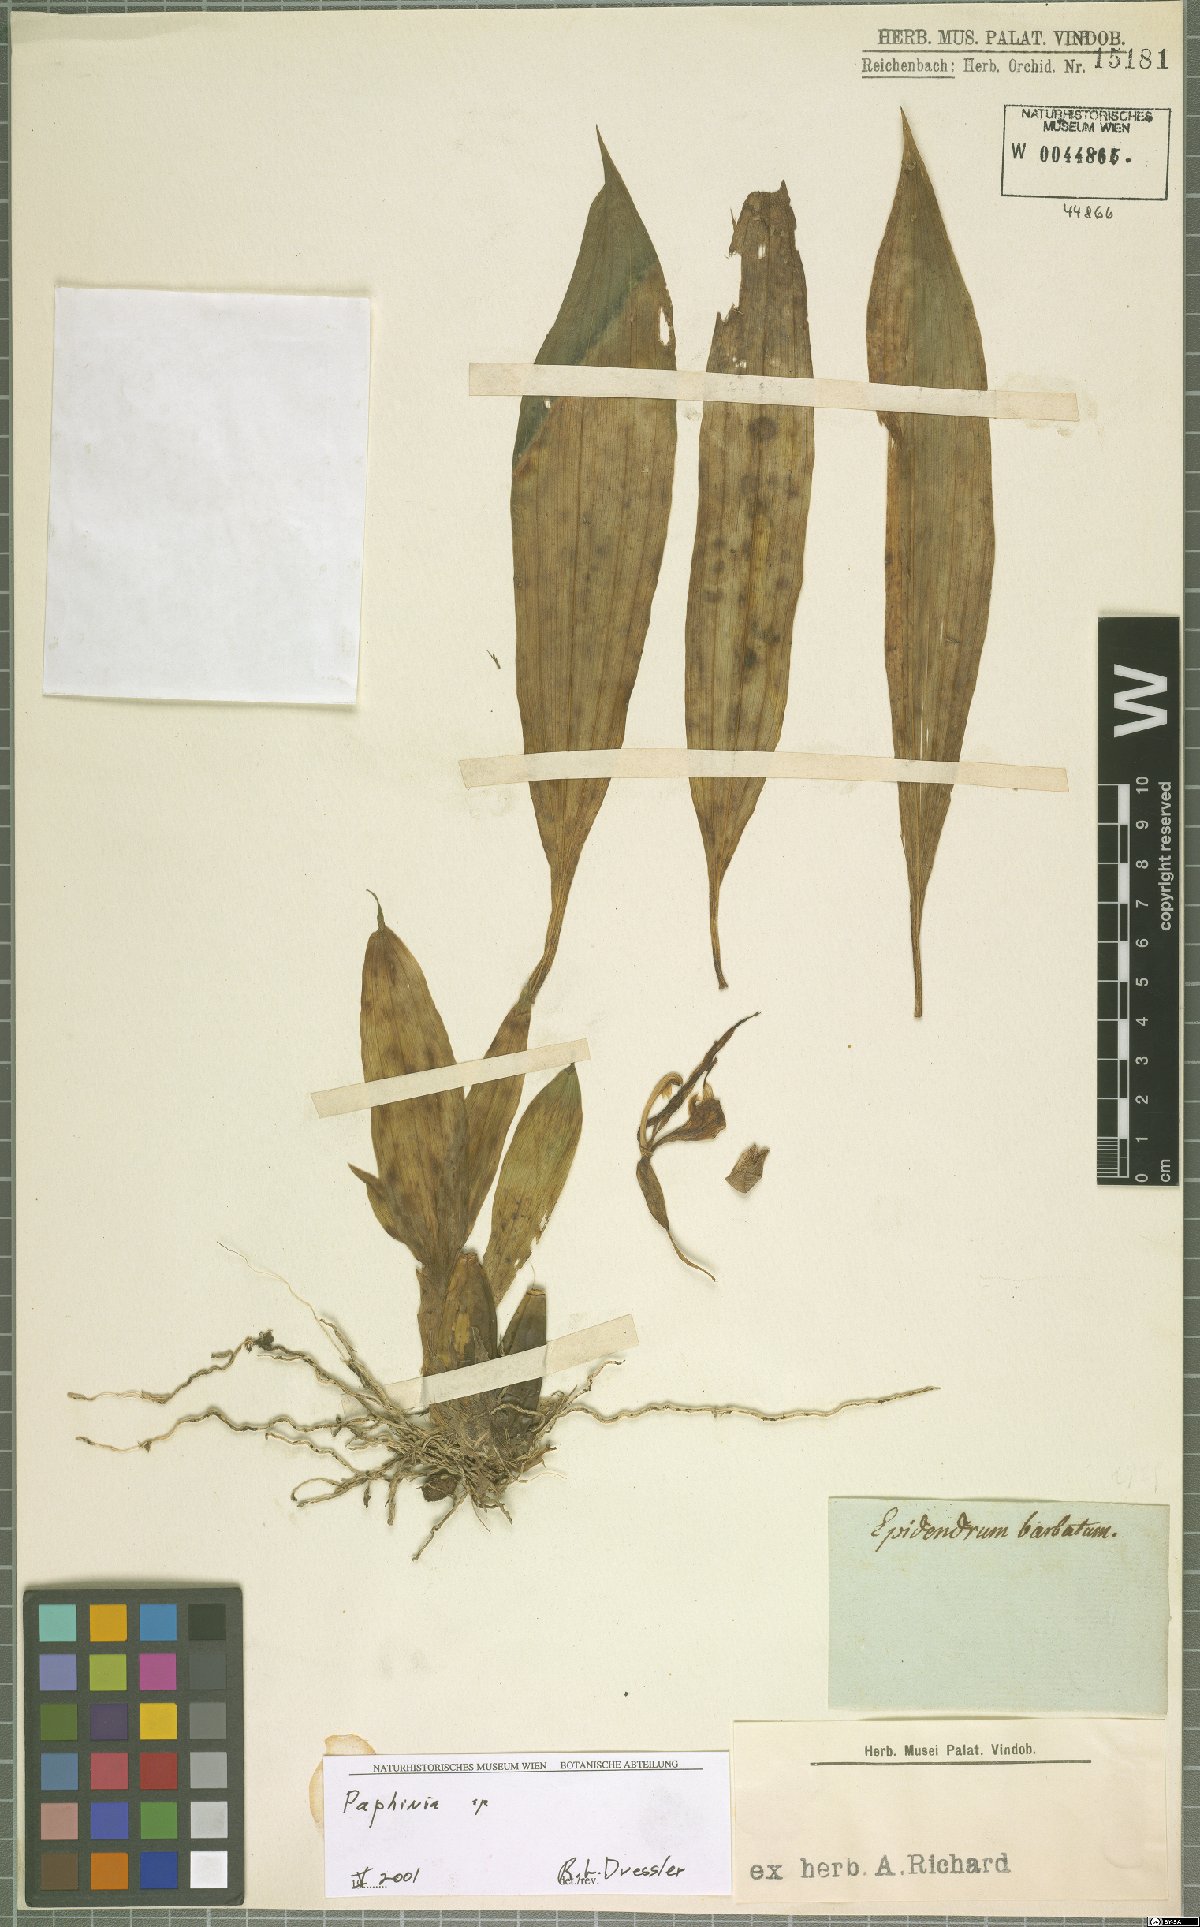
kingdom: Plantae
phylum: Tracheophyta
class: Liliopsida
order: Asparagales
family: Orchidaceae
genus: Paphinia
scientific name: Paphinia
